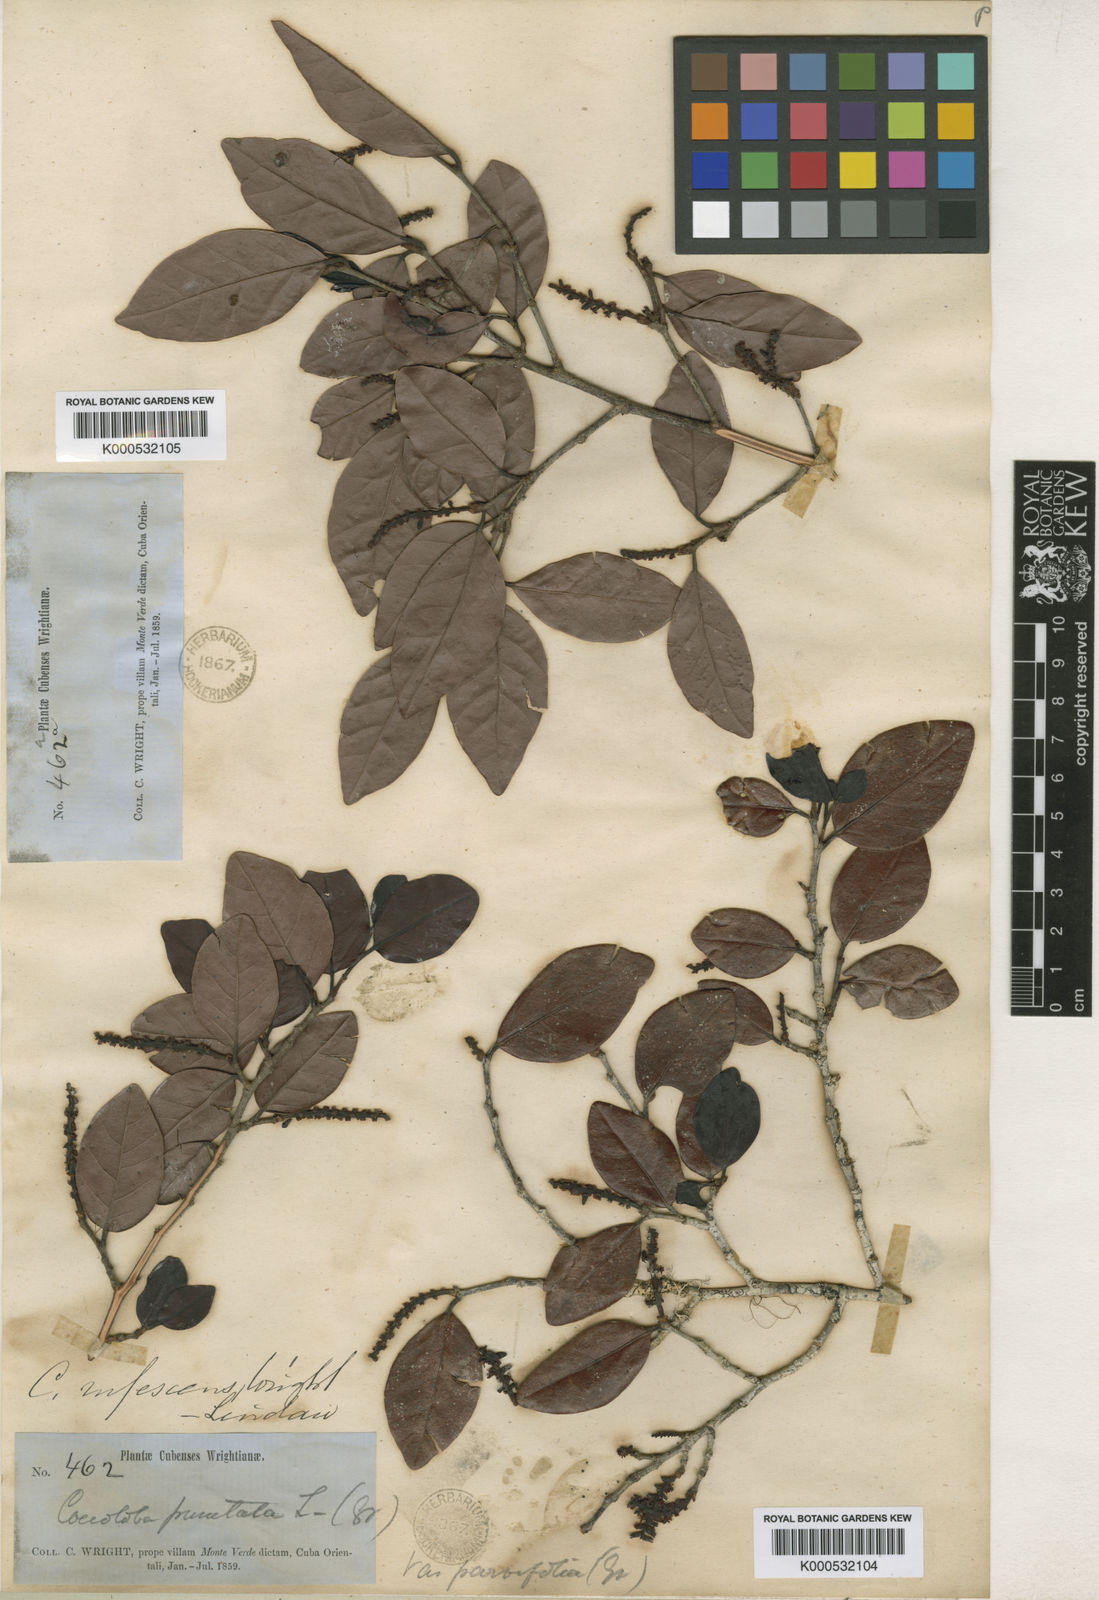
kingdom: Plantae
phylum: Tracheophyta
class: Magnoliopsida
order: Caryophyllales
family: Polygonaceae
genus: Coccoloba
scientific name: Coccoloba rufescens
